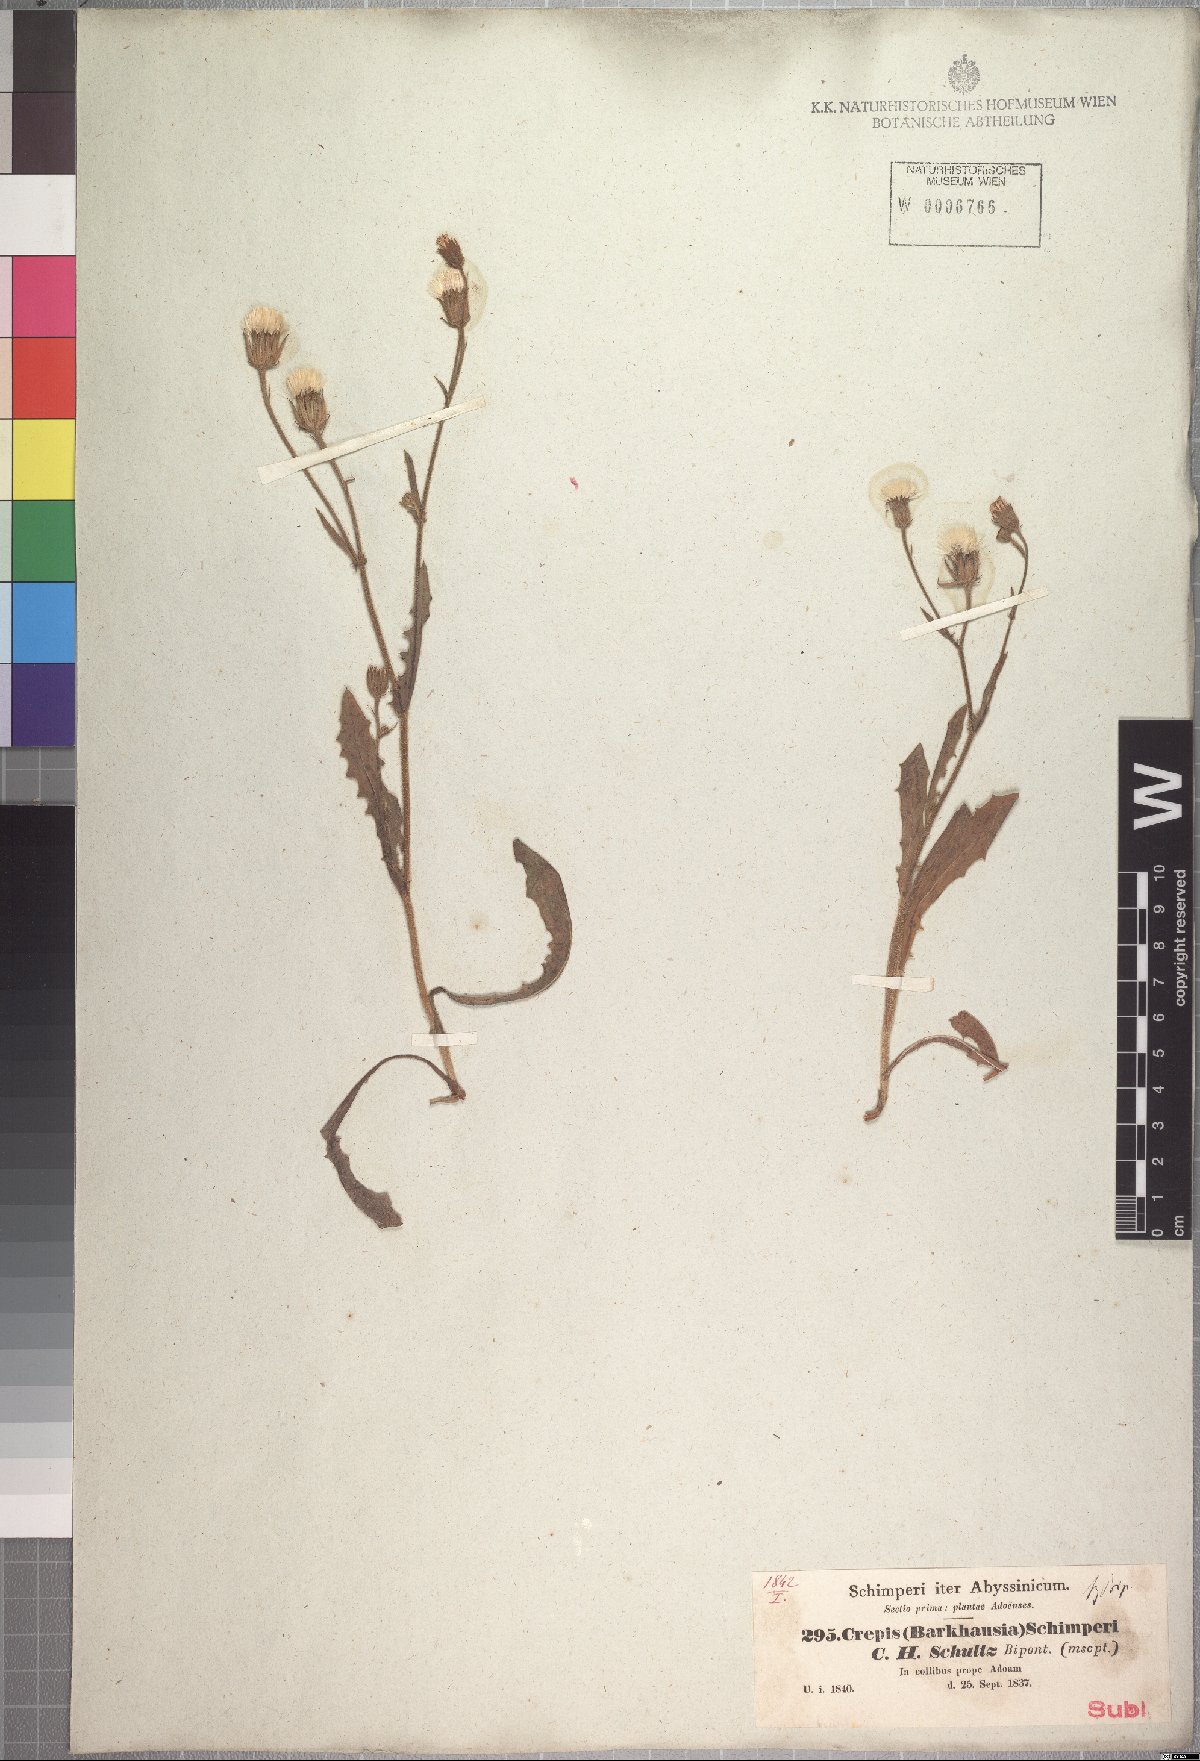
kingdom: Plantae
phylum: Tracheophyta
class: Magnoliopsida
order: Asterales
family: Asteraceae
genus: Crepis
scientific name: Crepis foetida
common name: Stinking hawk's-beard
